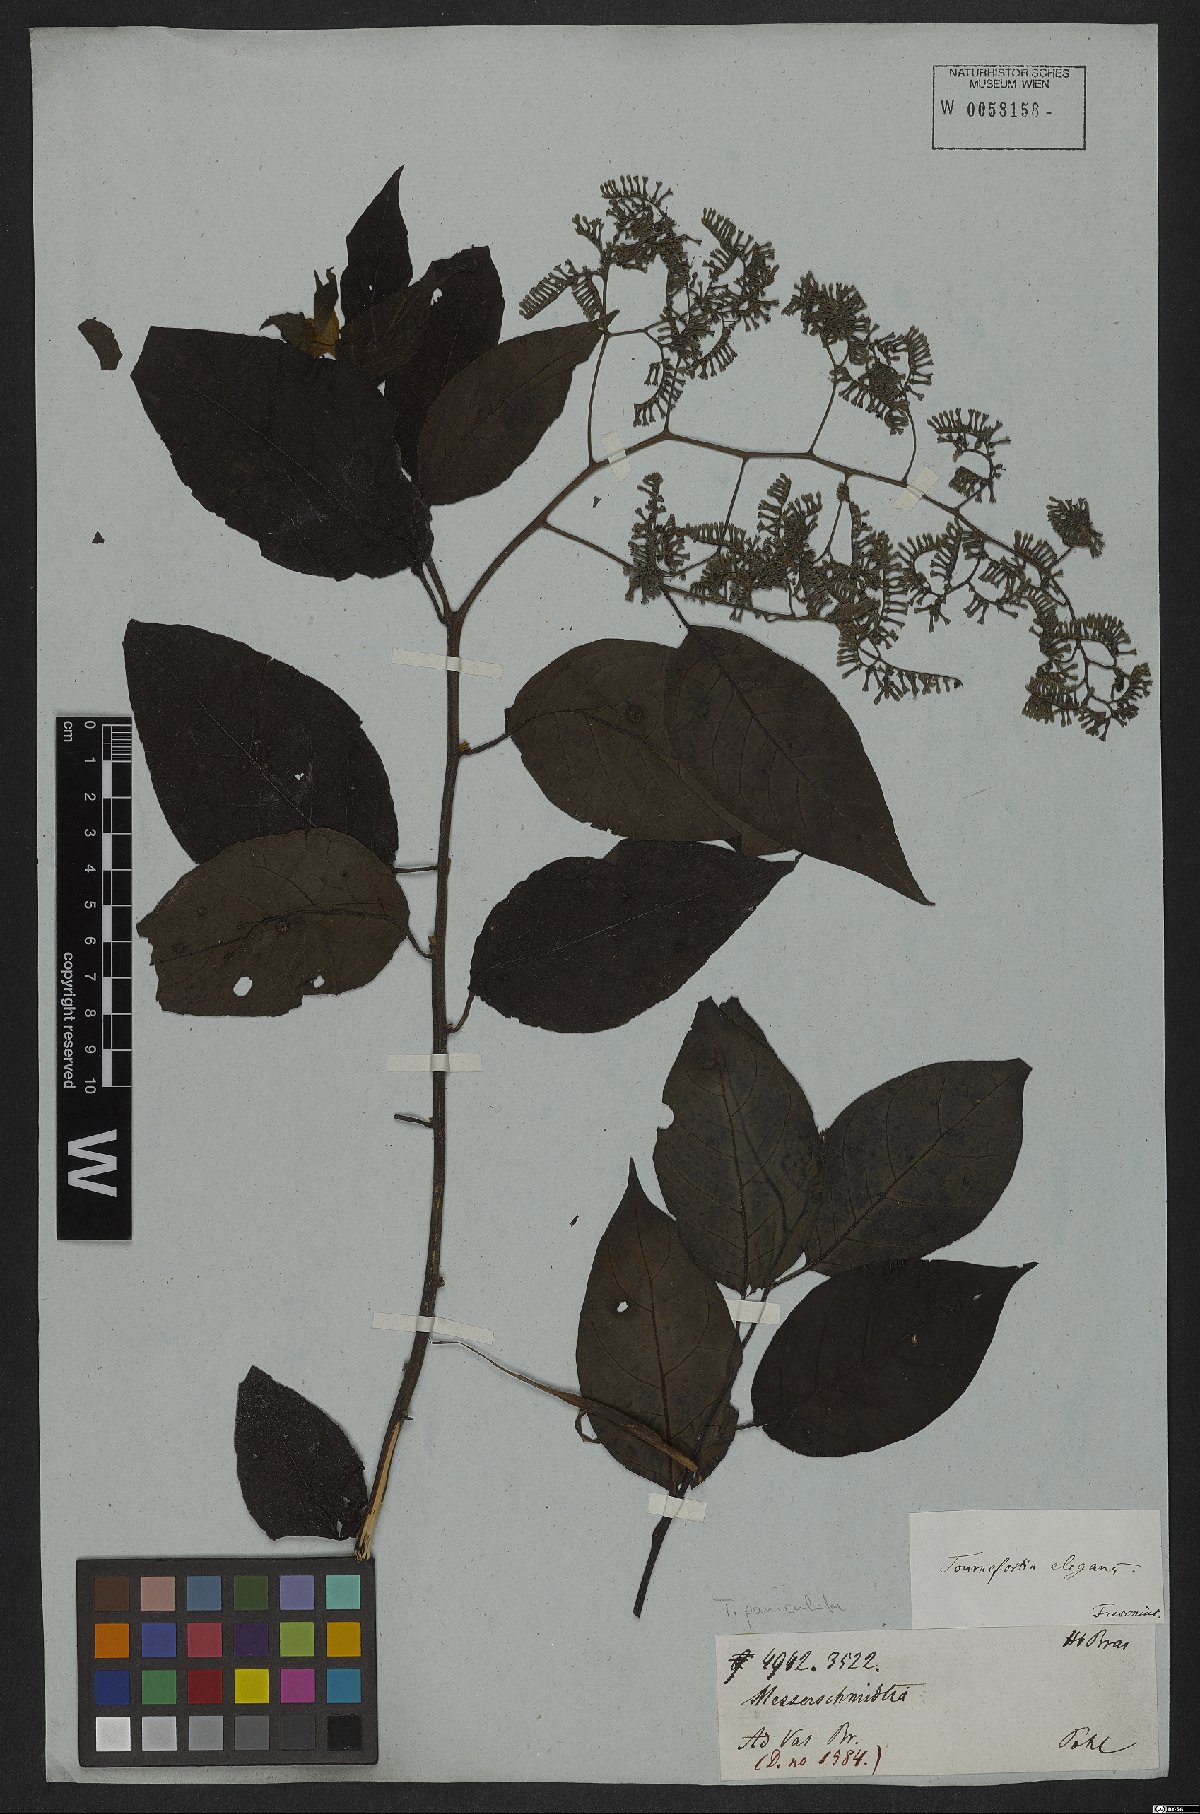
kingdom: Plantae
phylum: Tracheophyta
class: Magnoliopsida
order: Boraginales
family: Heliotropiaceae
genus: Myriopus
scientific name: Myriopus paniculatus
